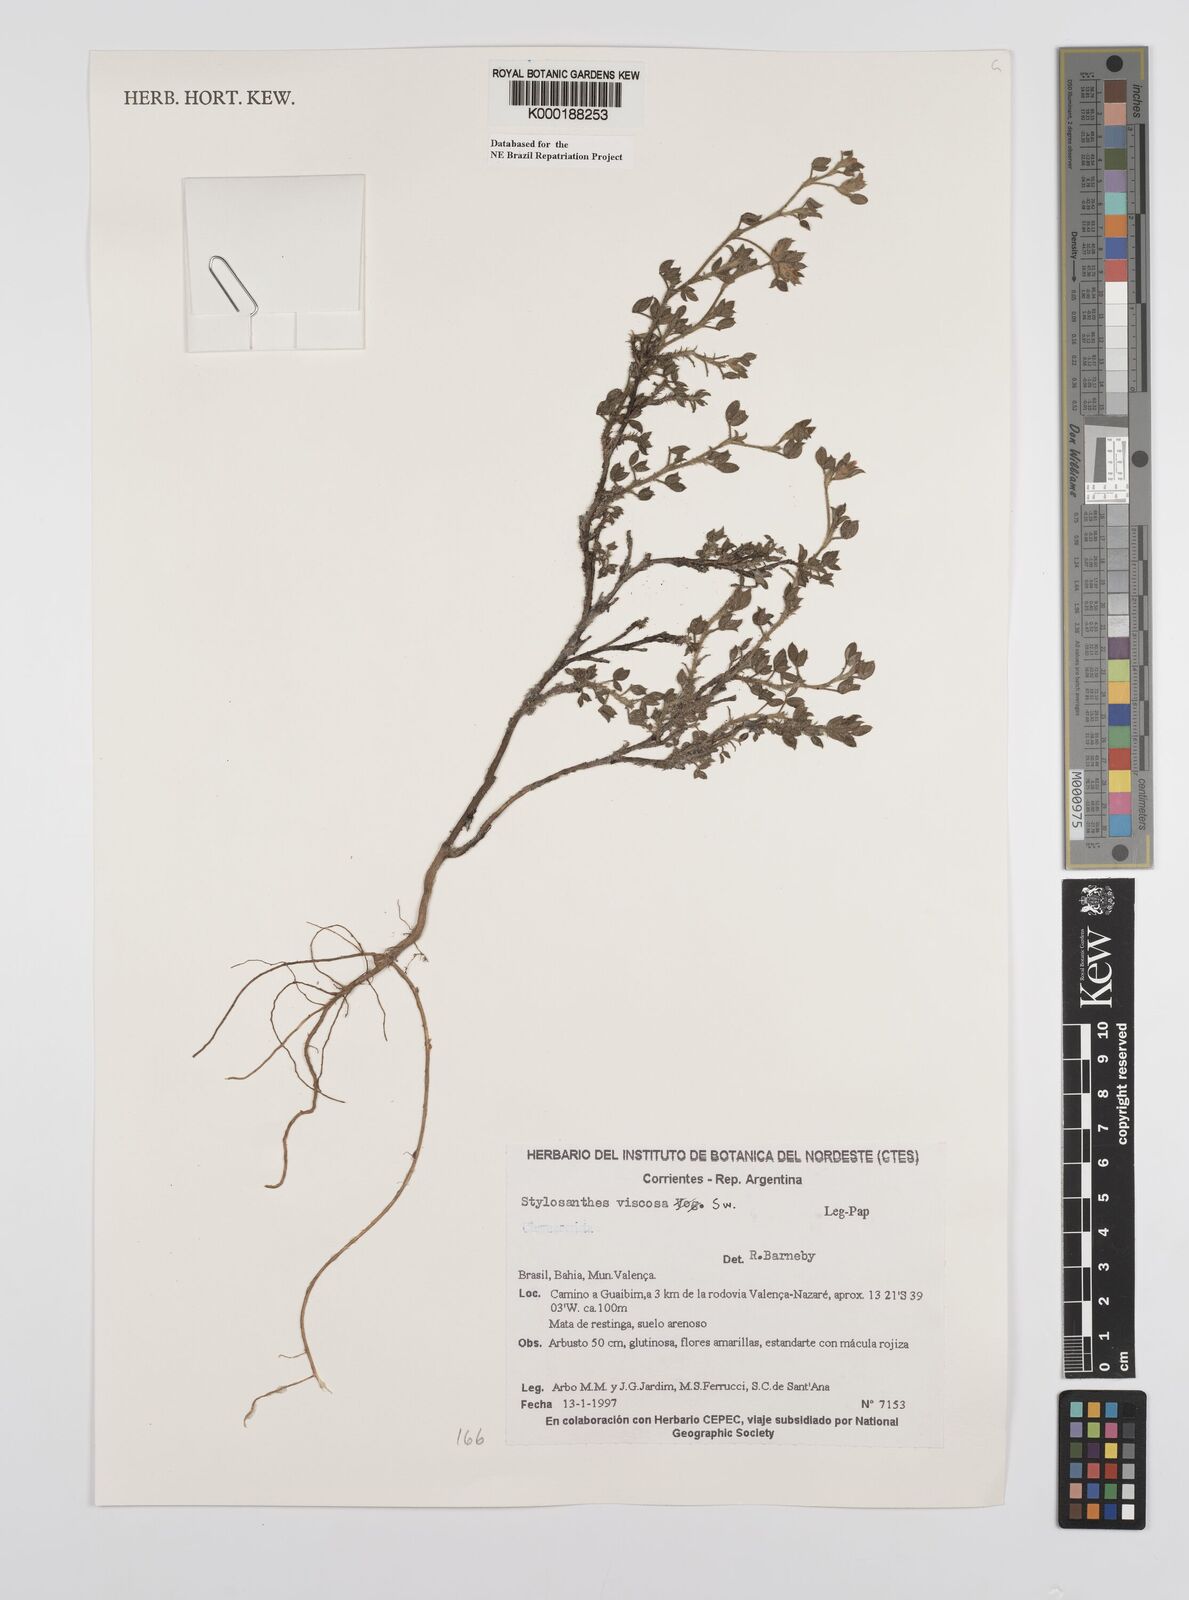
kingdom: Plantae
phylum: Tracheophyta
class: Magnoliopsida
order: Fabales
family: Fabaceae
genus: Stylosanthes
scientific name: Stylosanthes viscosa
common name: Viscid pencil-flower
